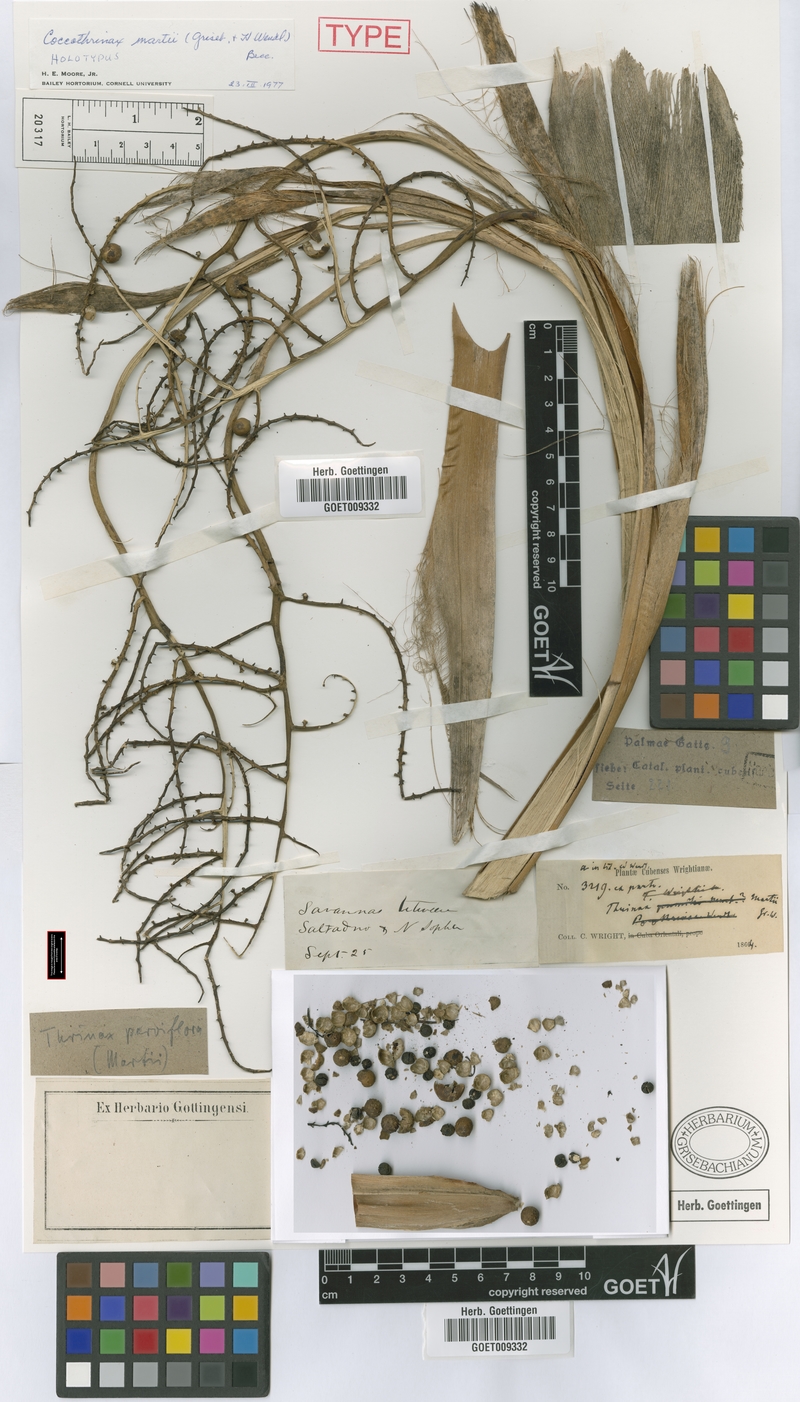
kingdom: Plantae
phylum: Tracheophyta
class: Liliopsida
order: Arecales
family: Arecaceae
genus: Thrinax
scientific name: Thrinax radiata
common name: Florida thatch
